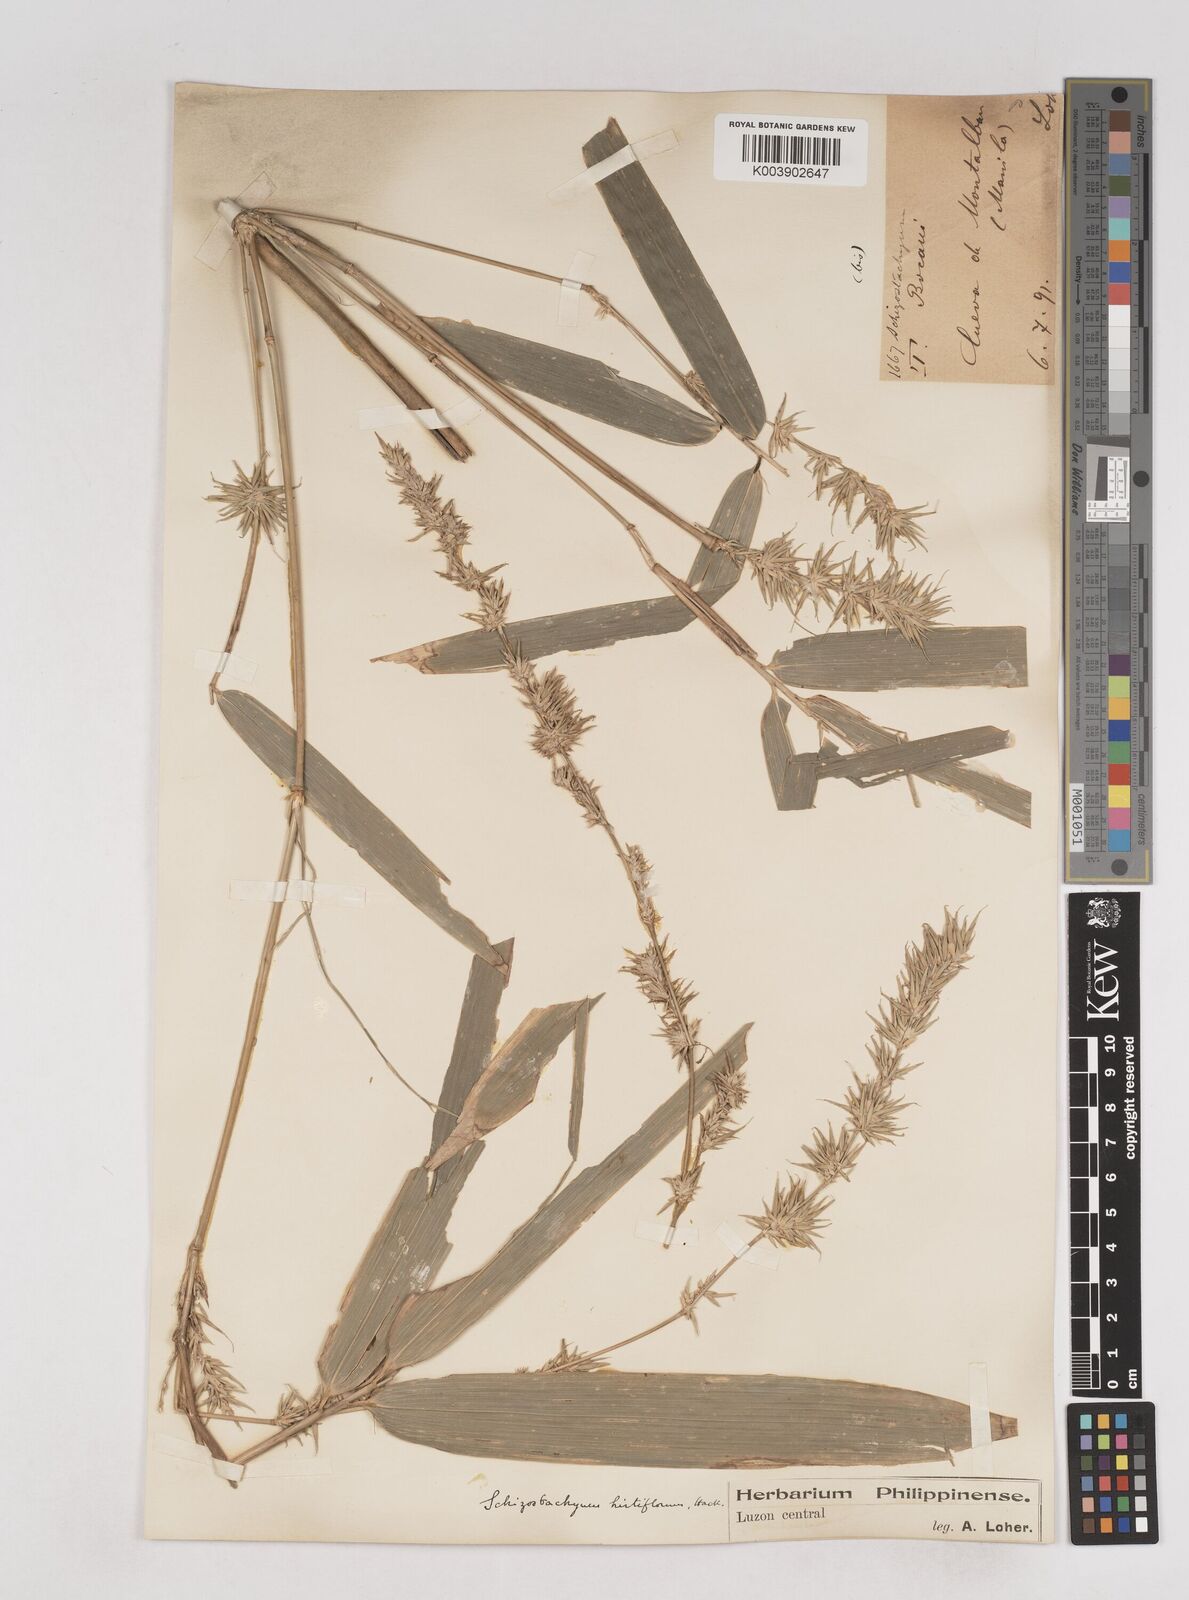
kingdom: Plantae
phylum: Tracheophyta
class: Liliopsida
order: Poales
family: Poaceae
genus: Schizostachyum
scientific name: Schizostachyum lumampao
